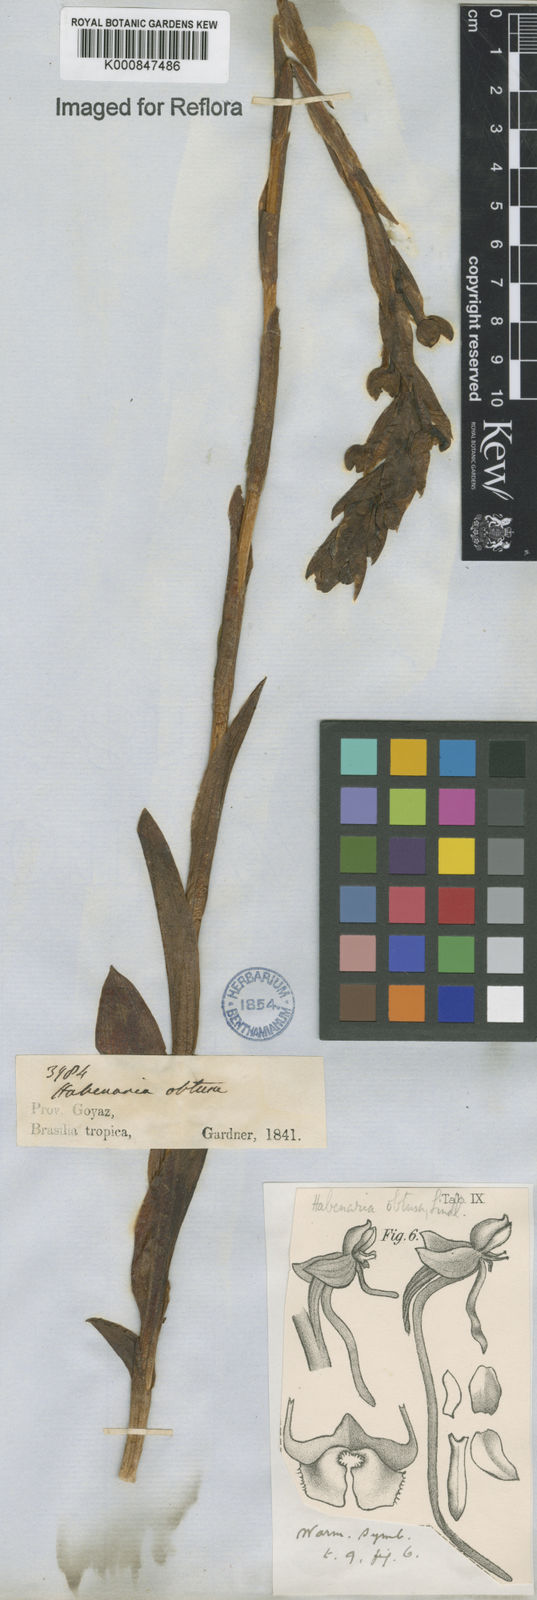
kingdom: Plantae
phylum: Tracheophyta
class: Liliopsida
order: Asparagales
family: Orchidaceae
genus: Habenaria
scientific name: Habenaria obtusa
